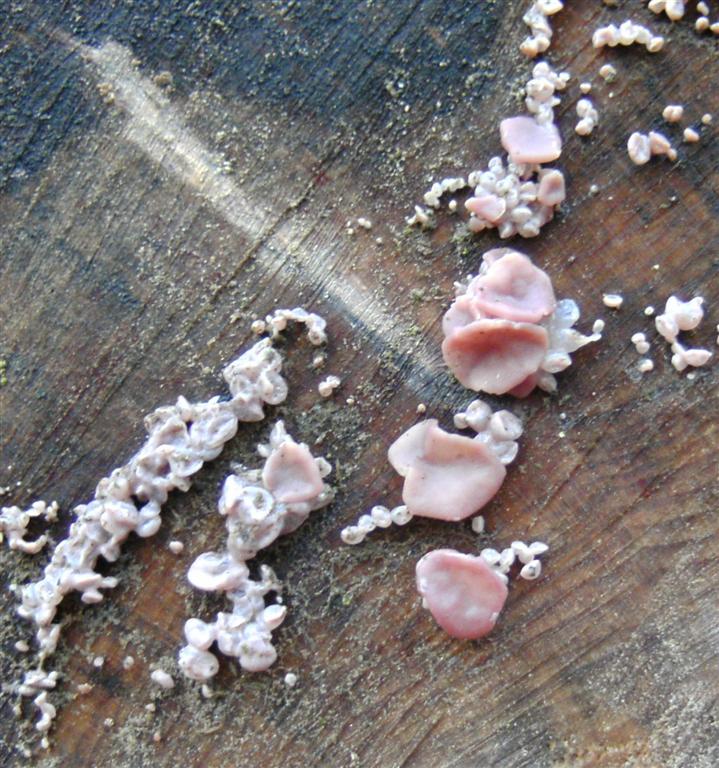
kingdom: Fungi
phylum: Ascomycota
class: Leotiomycetes
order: Helotiales
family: Gelatinodiscaceae
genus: Ascocoryne
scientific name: Ascocoryne sarcoides
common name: rødlilla sejskive
